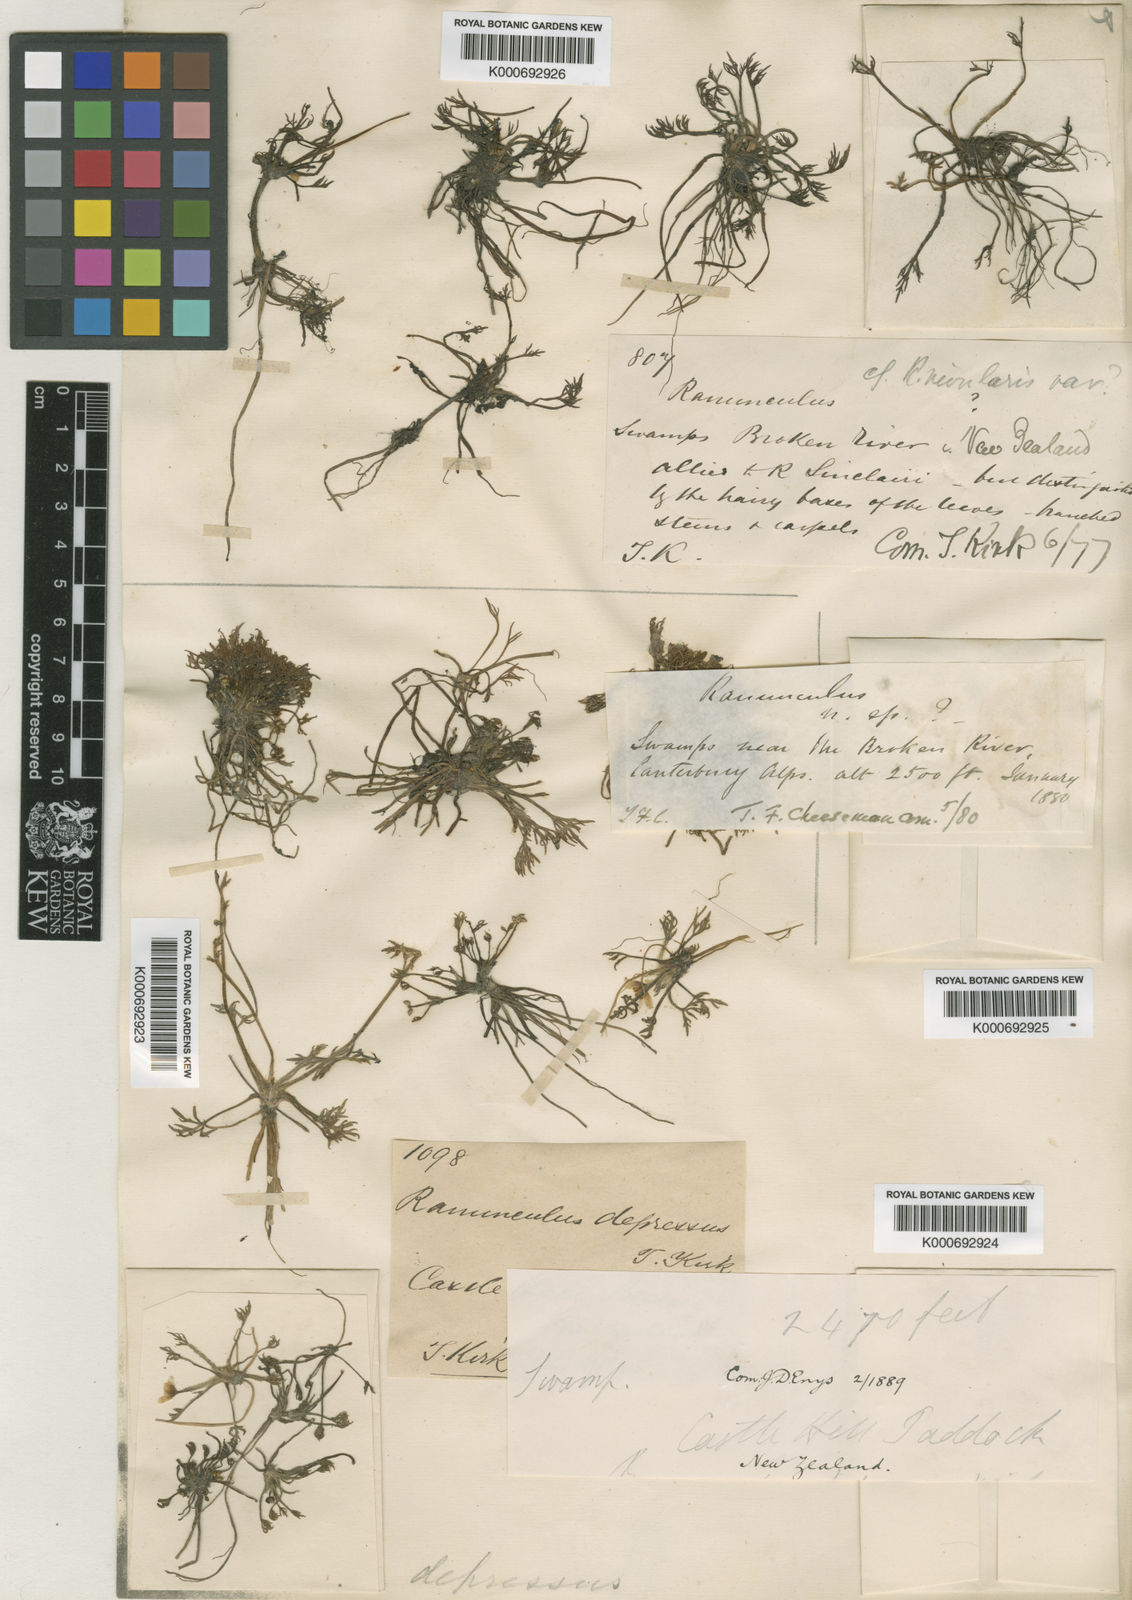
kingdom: Plantae
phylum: Tracheophyta
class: Magnoliopsida
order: Ranunculales
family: Ranunculaceae
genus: Ranunculus
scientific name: Ranunculus brevis
